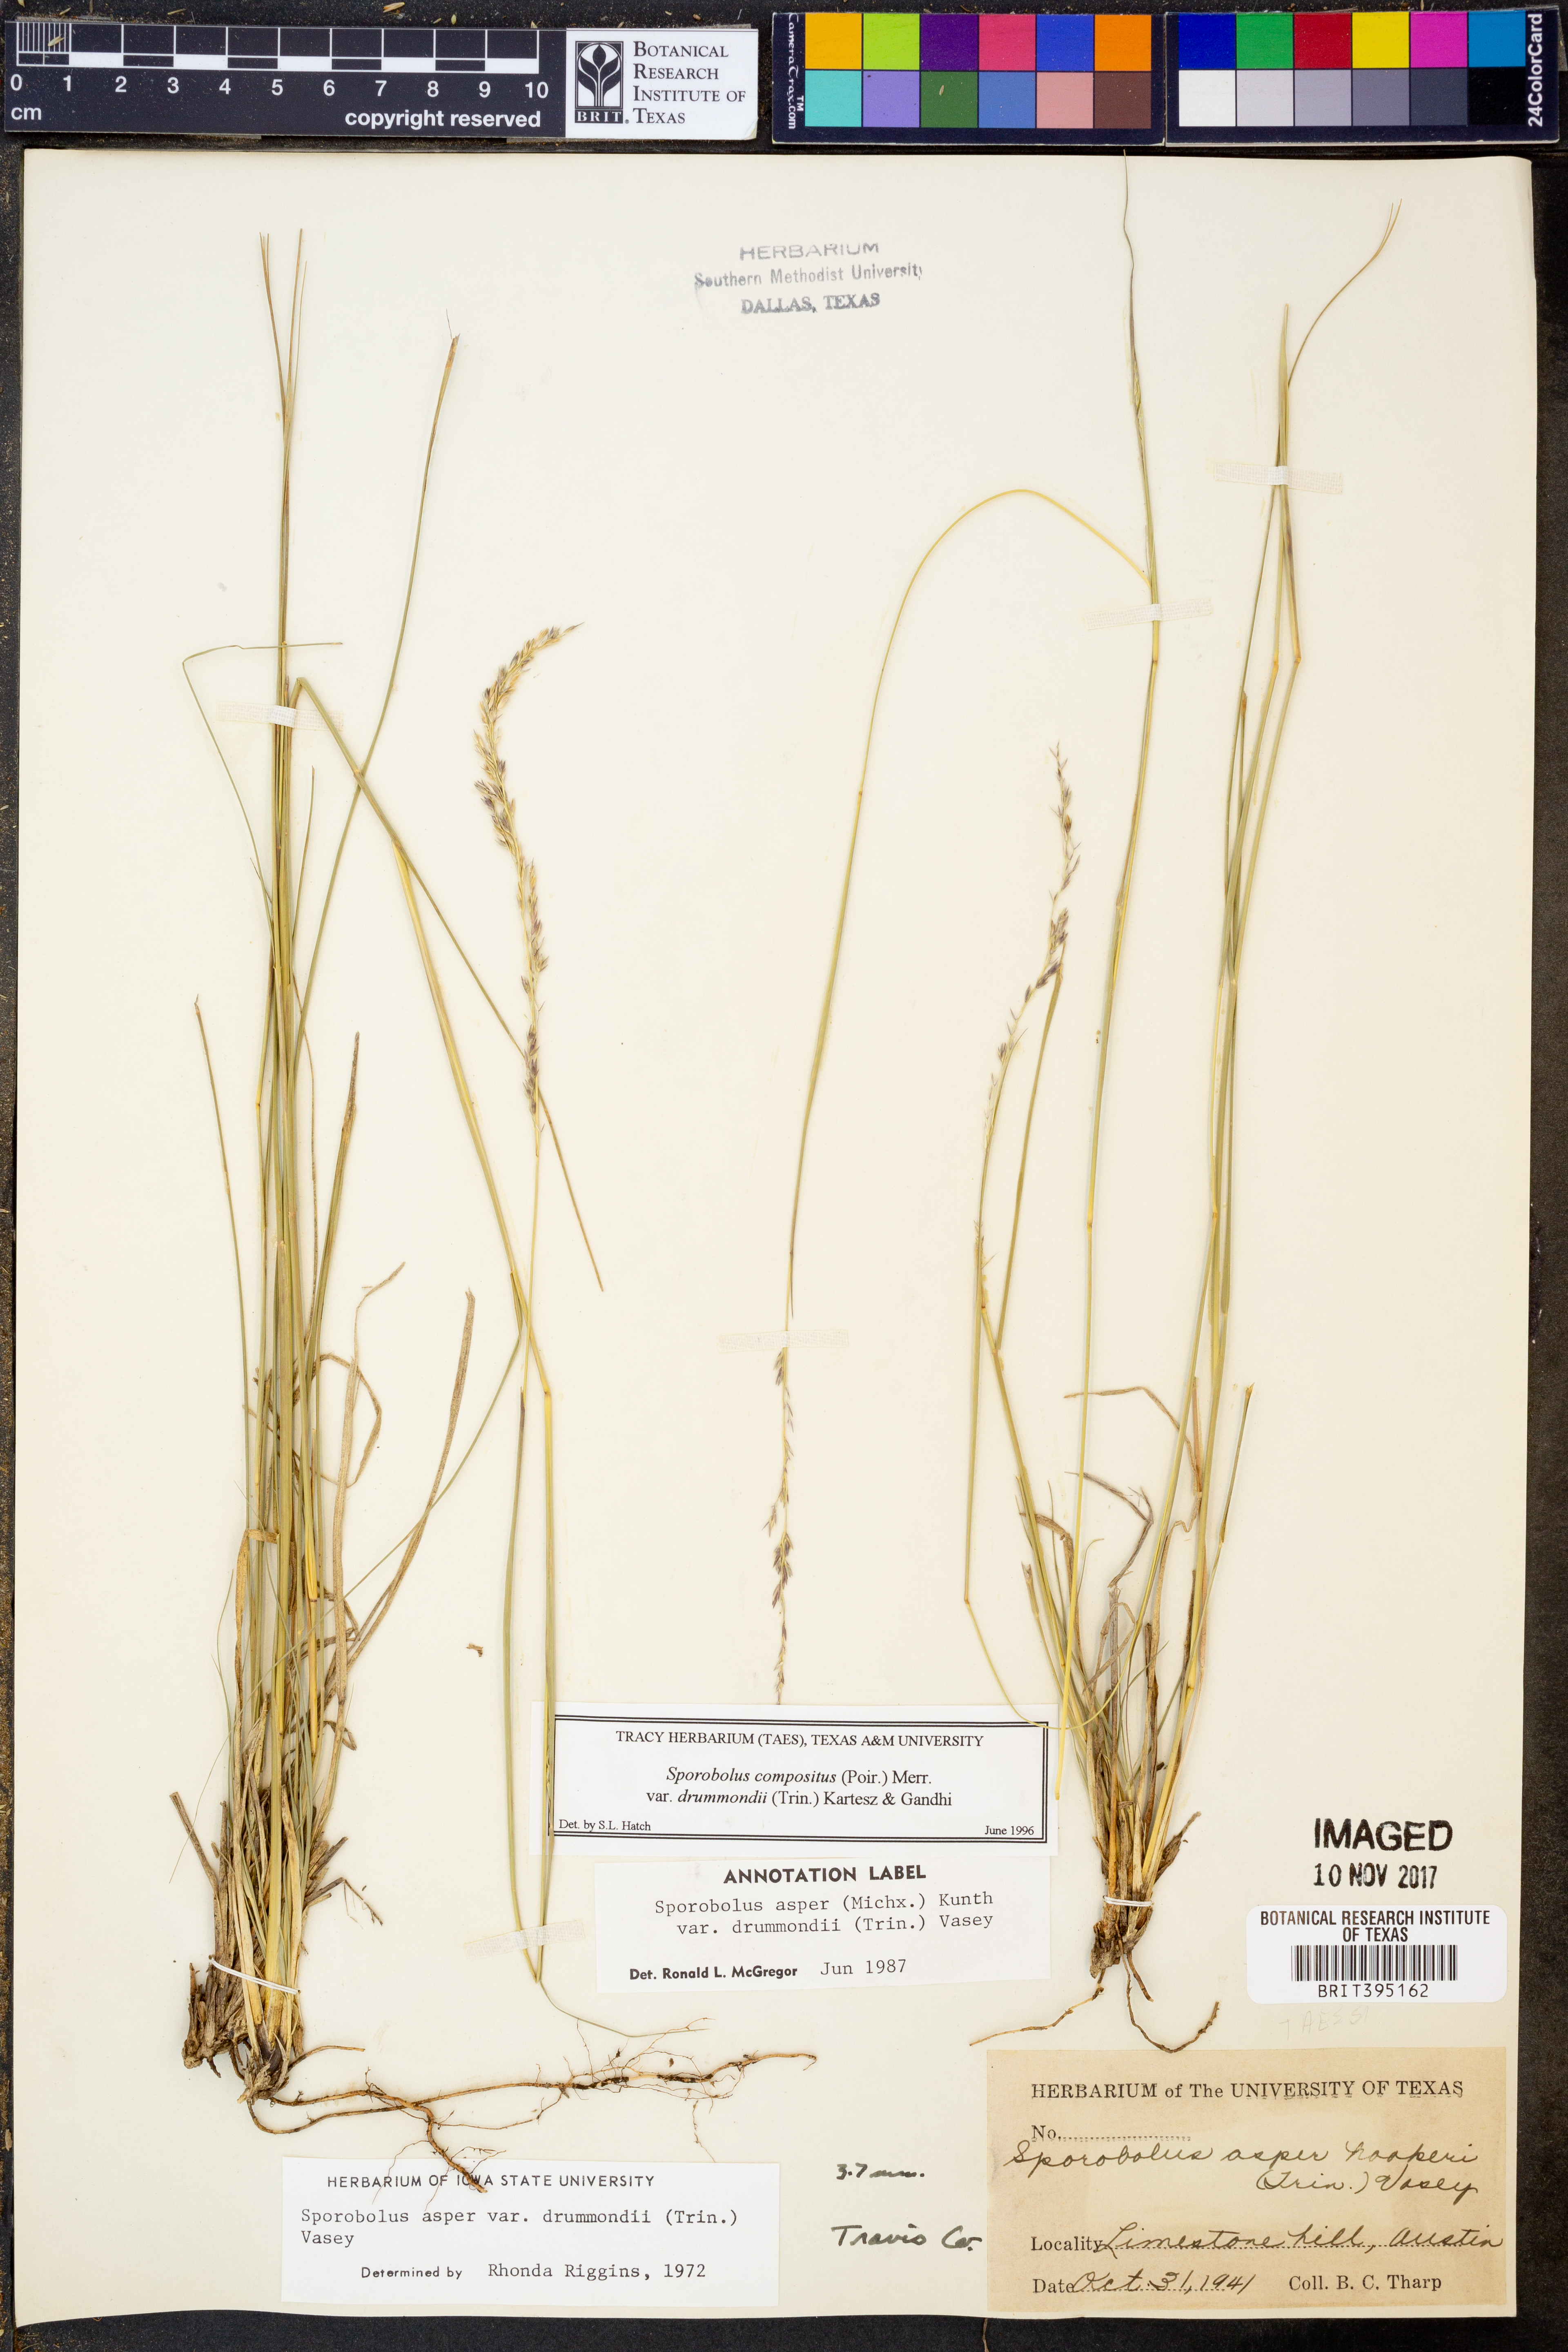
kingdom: Plantae
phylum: Tracheophyta
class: Liliopsida
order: Poales
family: Poaceae
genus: Sporobolus
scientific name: Sporobolus compositus
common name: Rough dropseed
